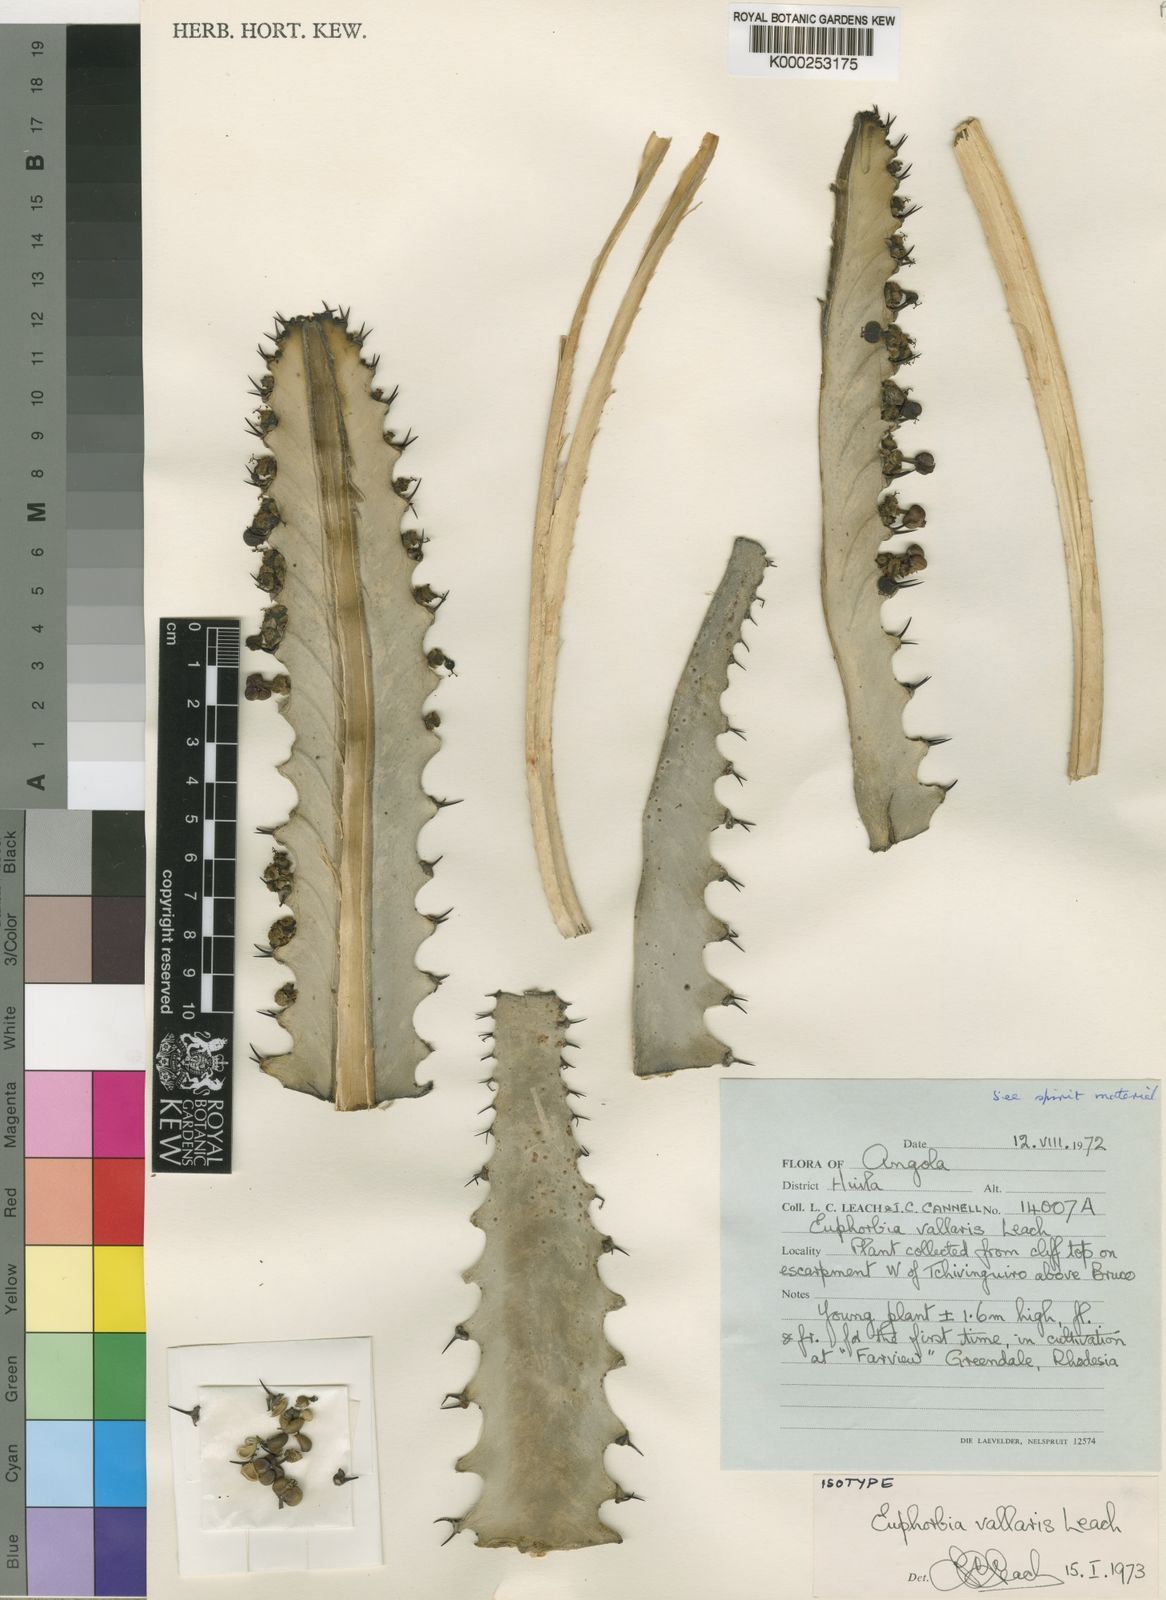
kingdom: Plantae
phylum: Tracheophyta
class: Magnoliopsida
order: Malpighiales
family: Euphorbiaceae
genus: Euphorbia
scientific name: Euphorbia vallaris
